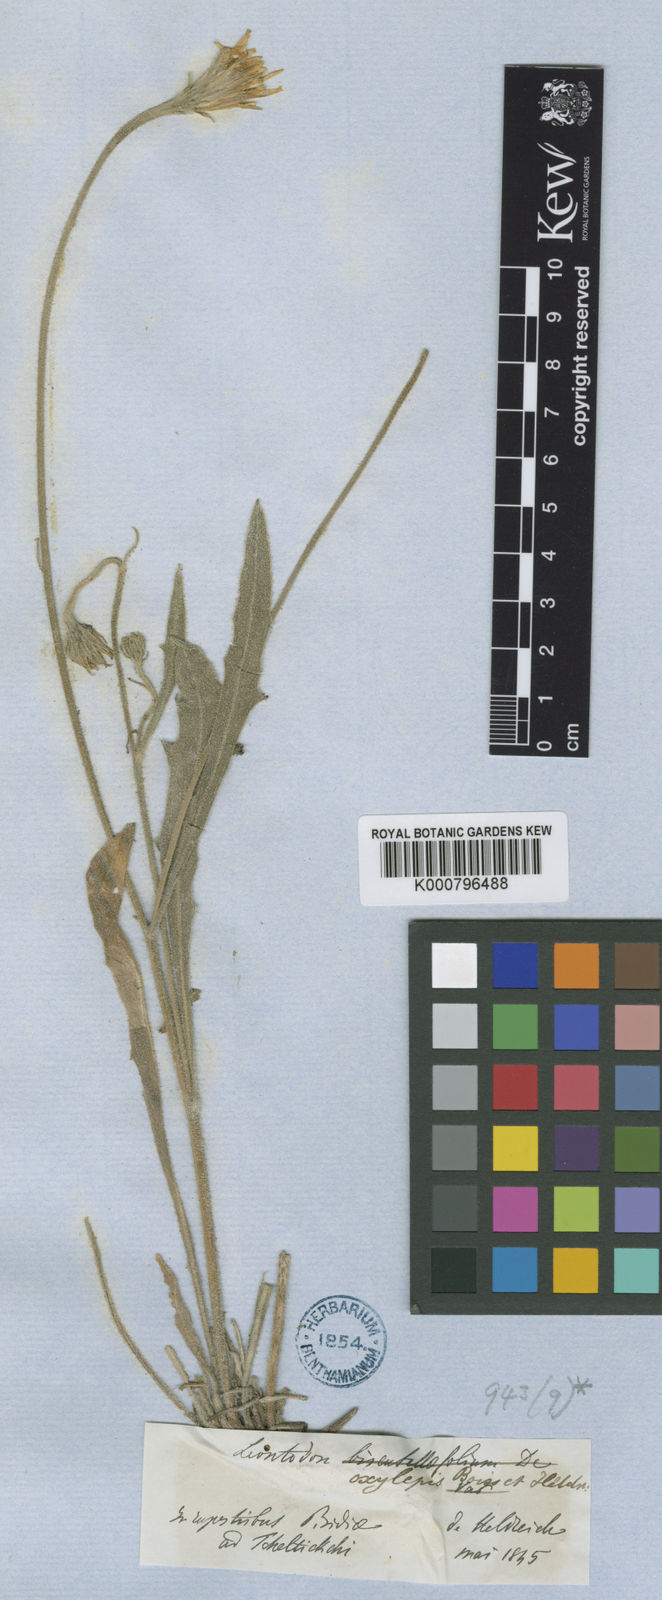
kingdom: Plantae
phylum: Tracheophyta
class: Magnoliopsida
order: Asterales
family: Asteraceae
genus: Leontodon
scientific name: Leontodon oxylepis
